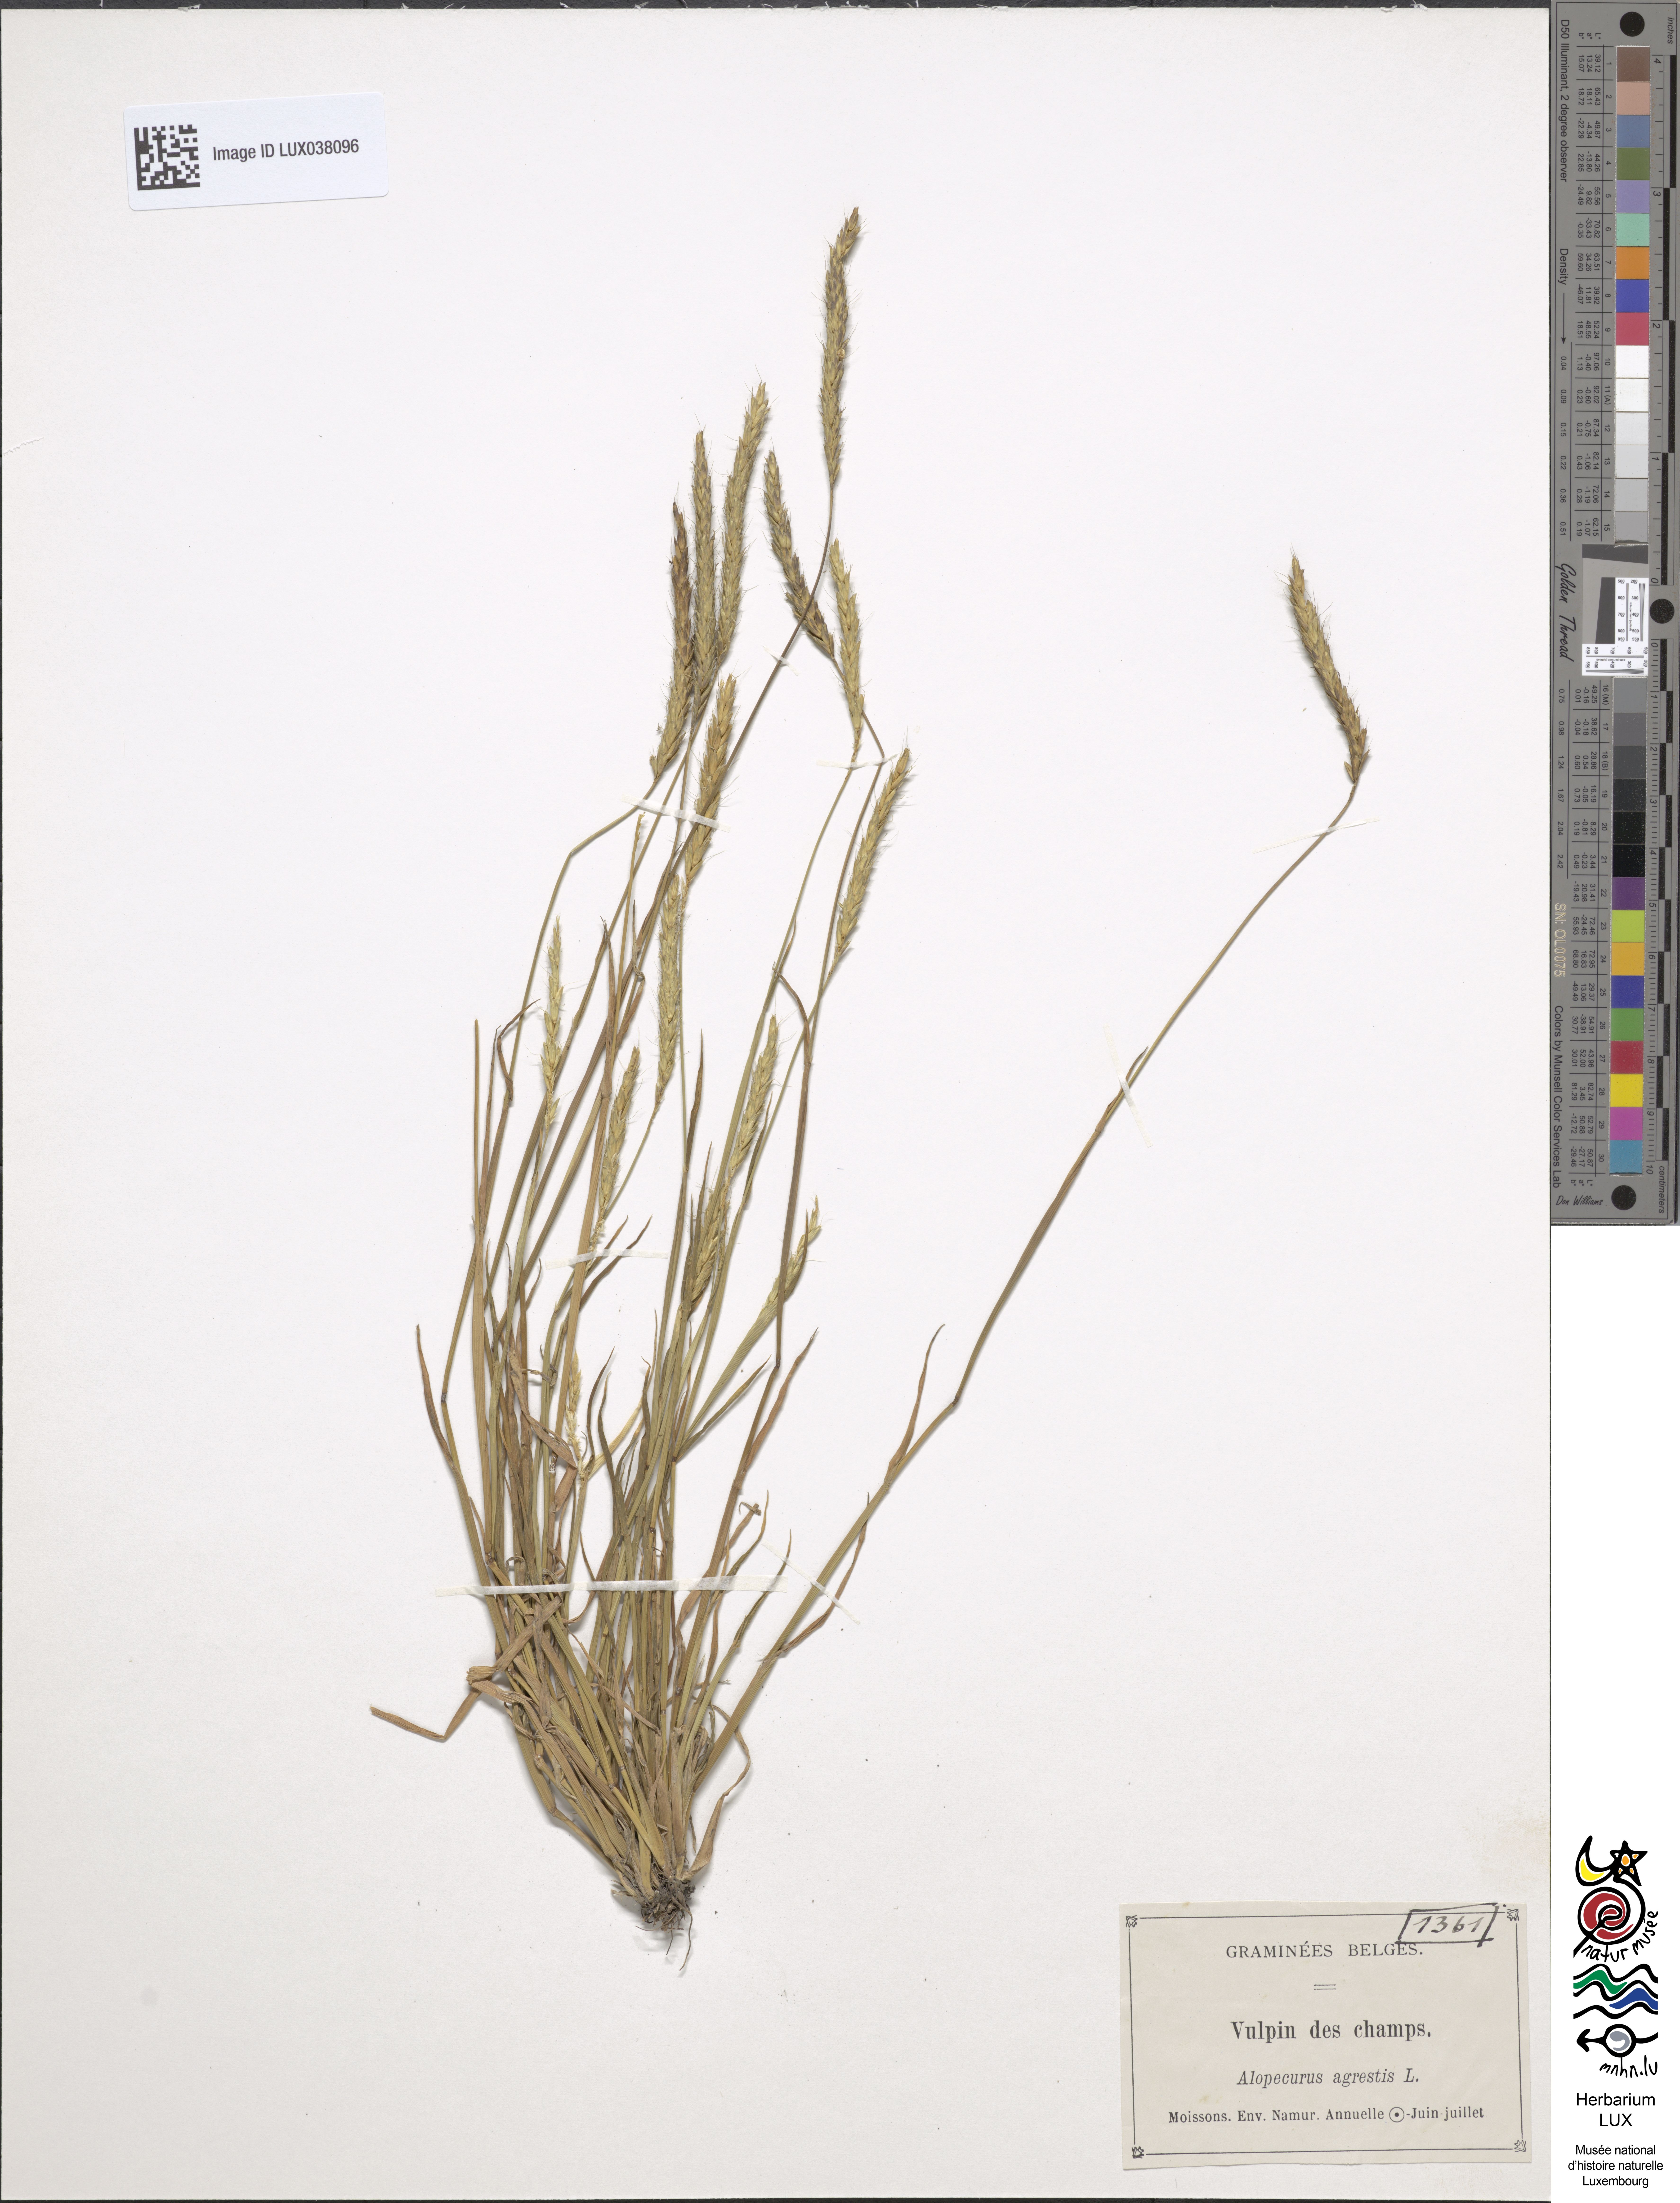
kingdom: Plantae
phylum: Tracheophyta
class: Liliopsida
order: Poales
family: Poaceae
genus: Alopecurus
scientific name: Alopecurus myosuroides
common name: Black-grass
